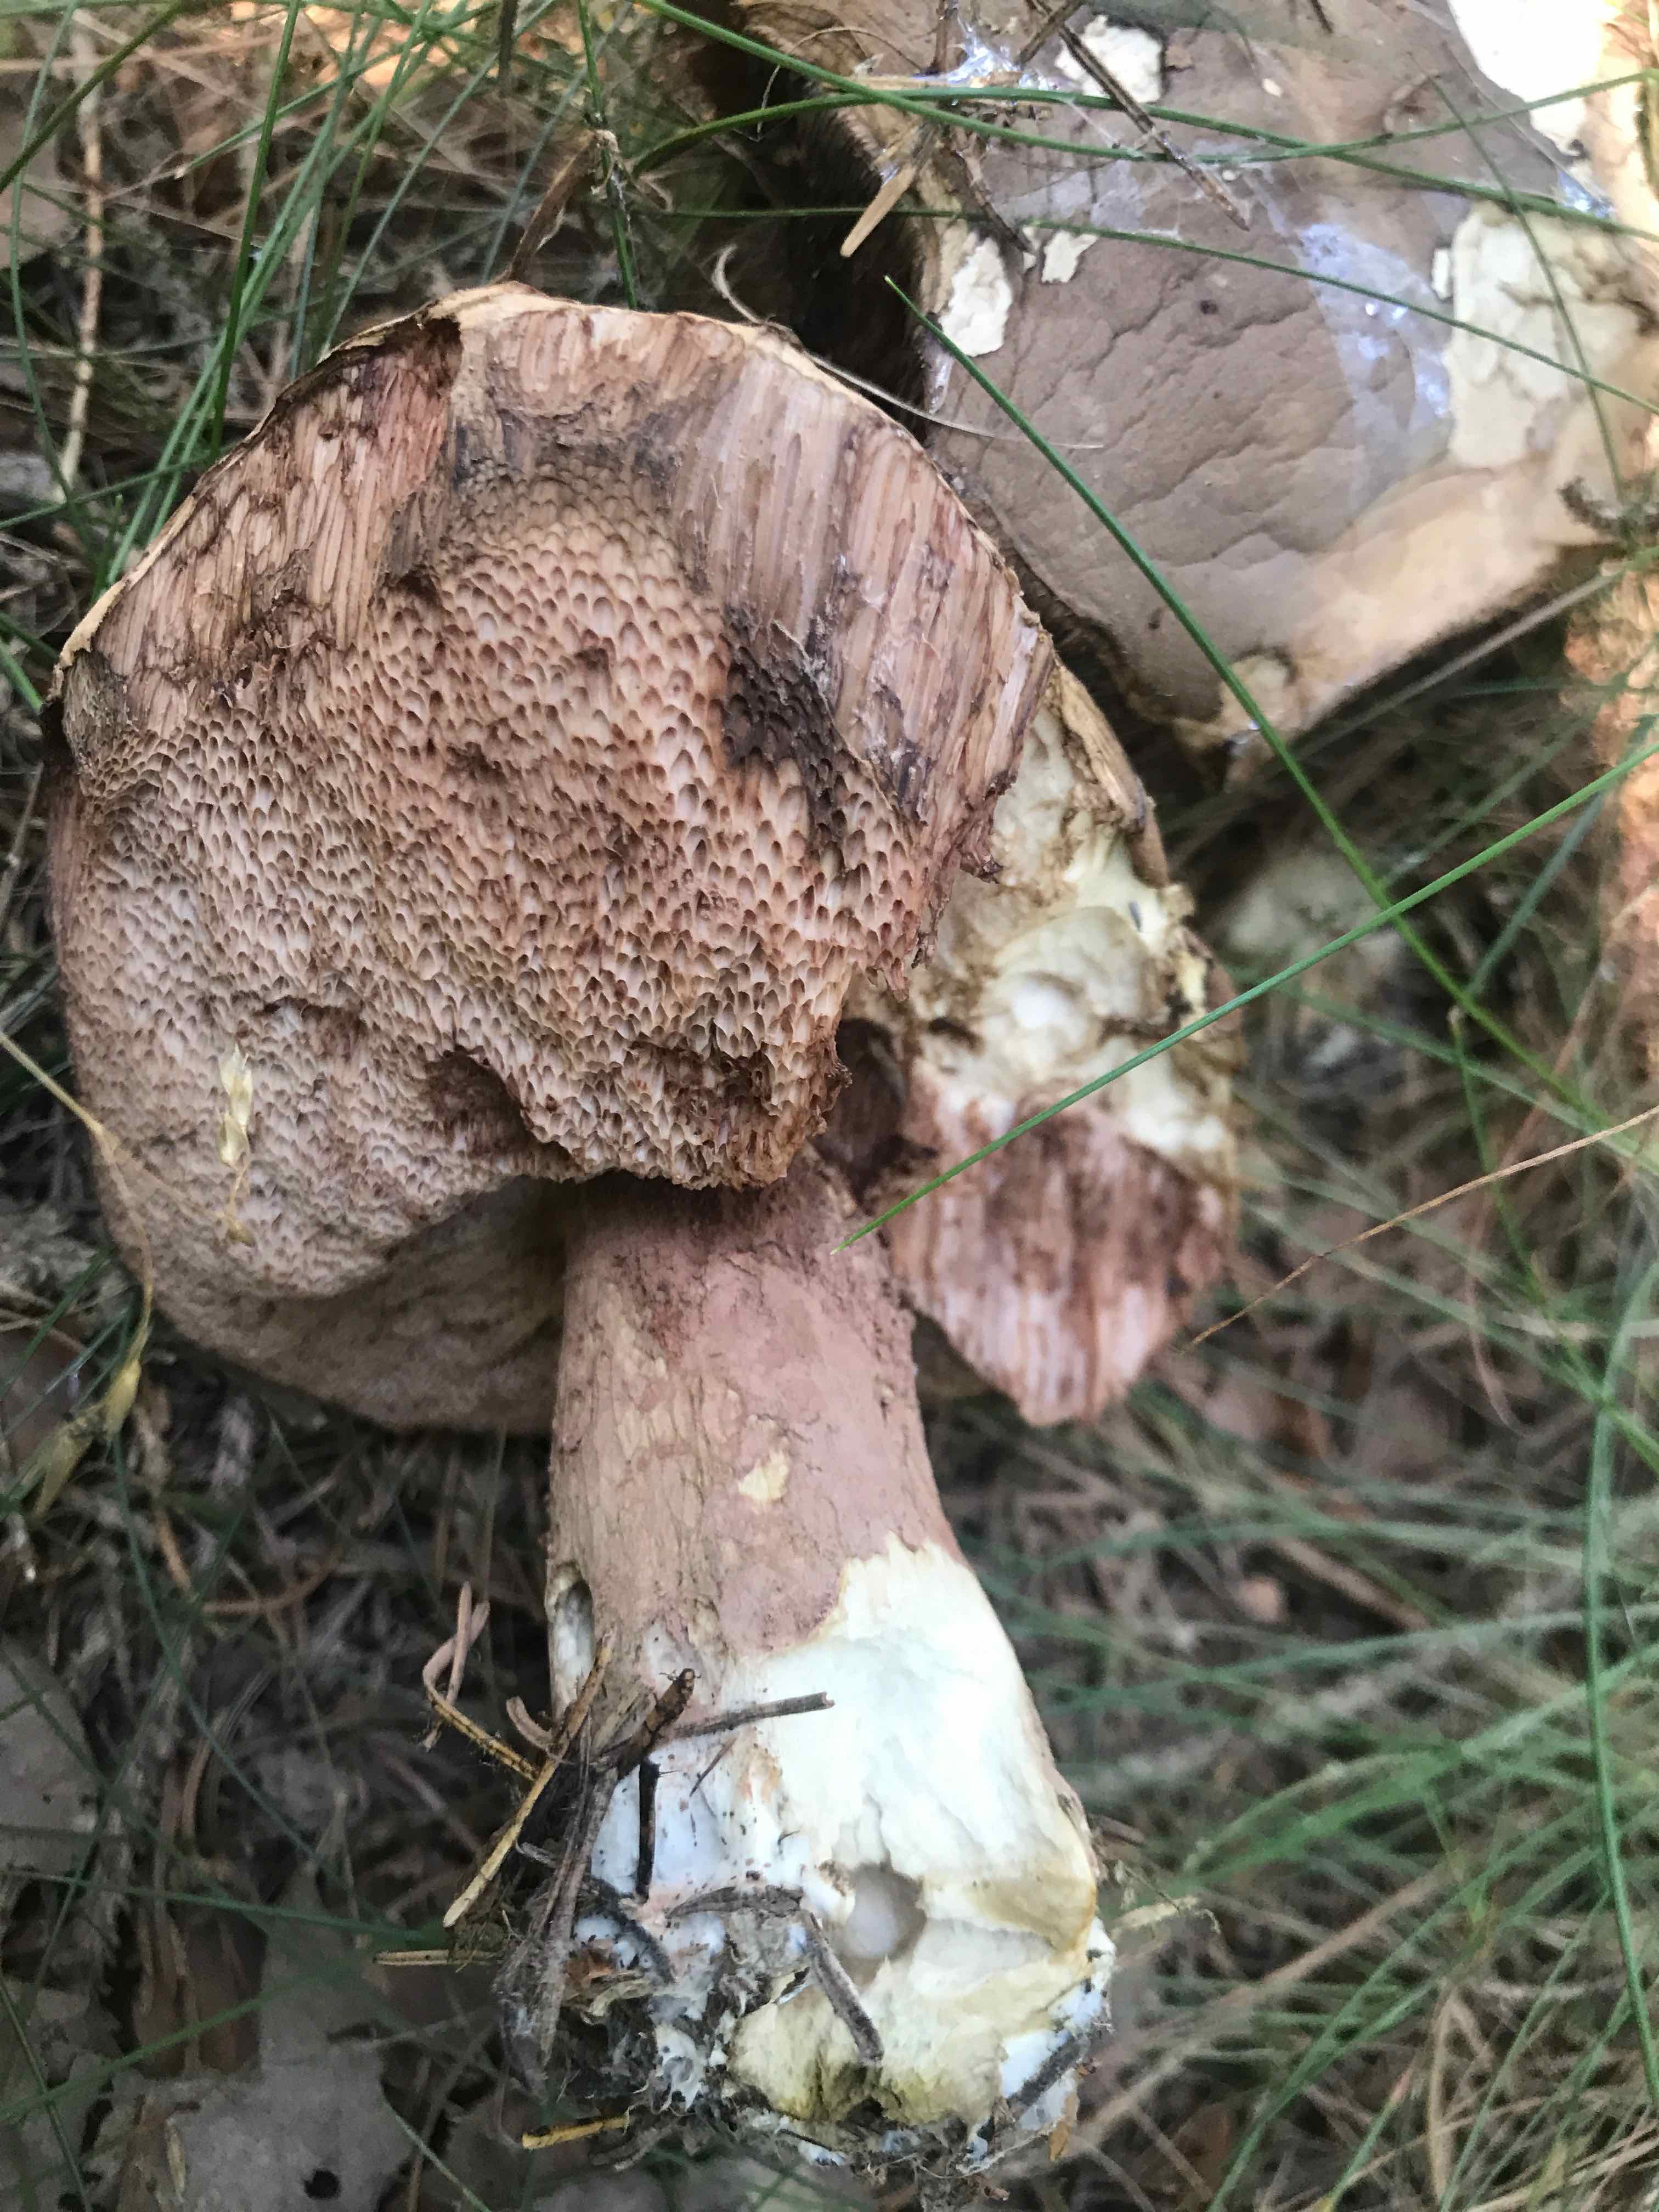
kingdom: Fungi
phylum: Basidiomycota
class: Agaricomycetes
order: Boletales
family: Boletaceae
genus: Tylopilus
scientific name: Tylopilus felleus
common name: galderørhat
